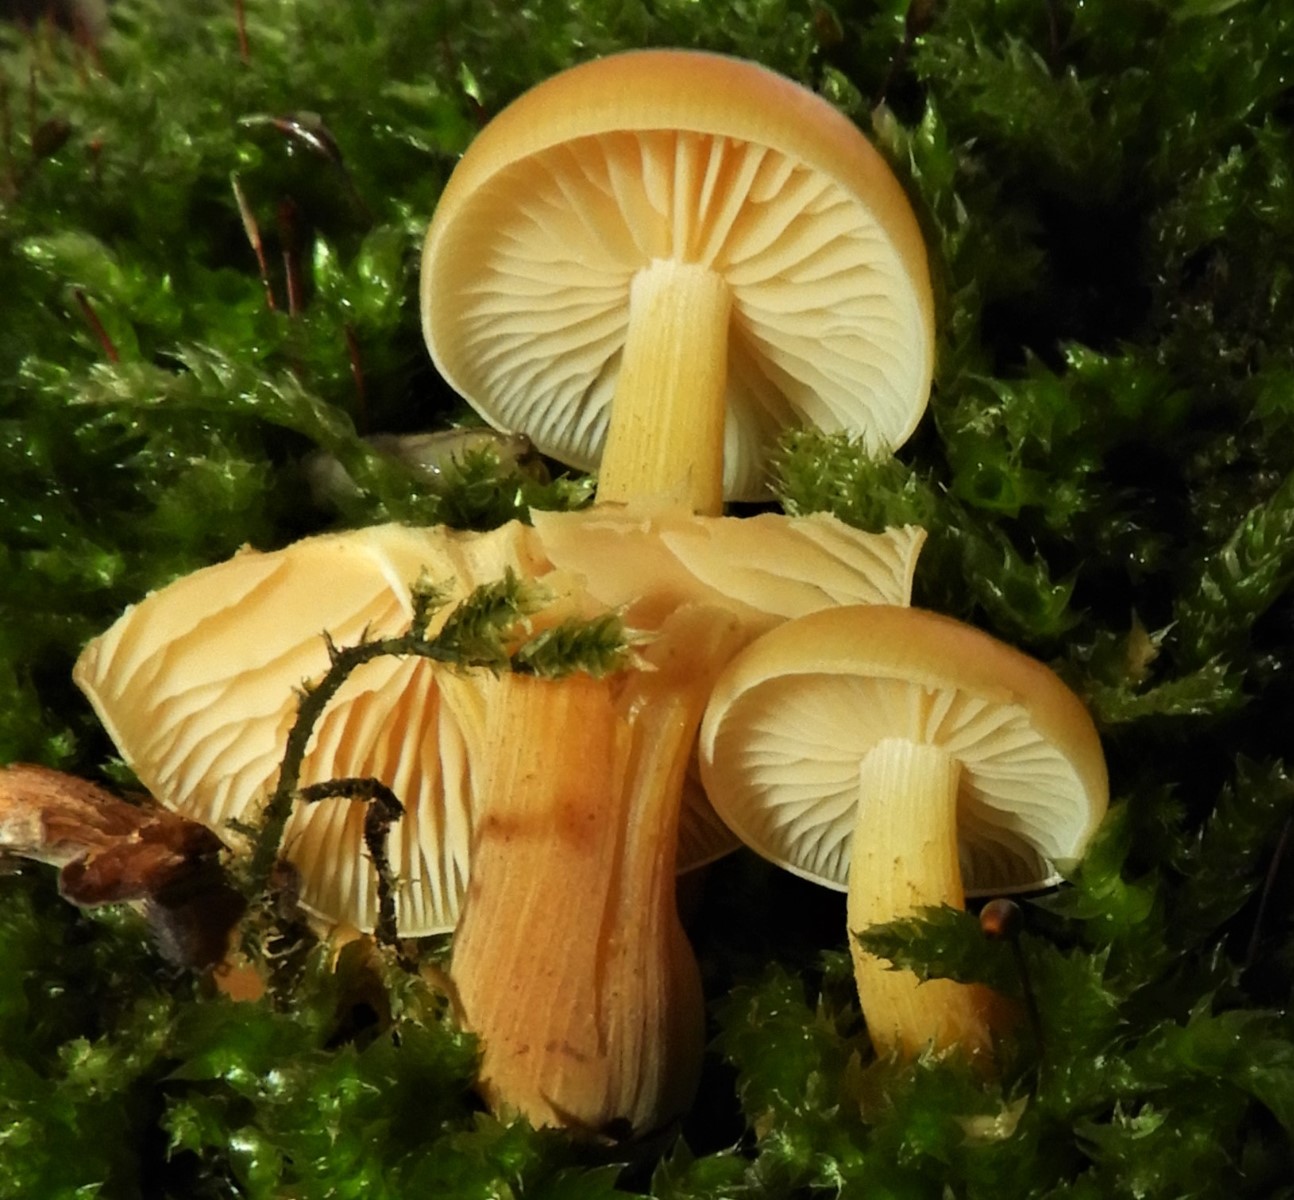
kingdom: Fungi
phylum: Basidiomycota
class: Agaricomycetes
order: Agaricales
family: Physalacriaceae
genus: Flammulina
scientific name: Flammulina
